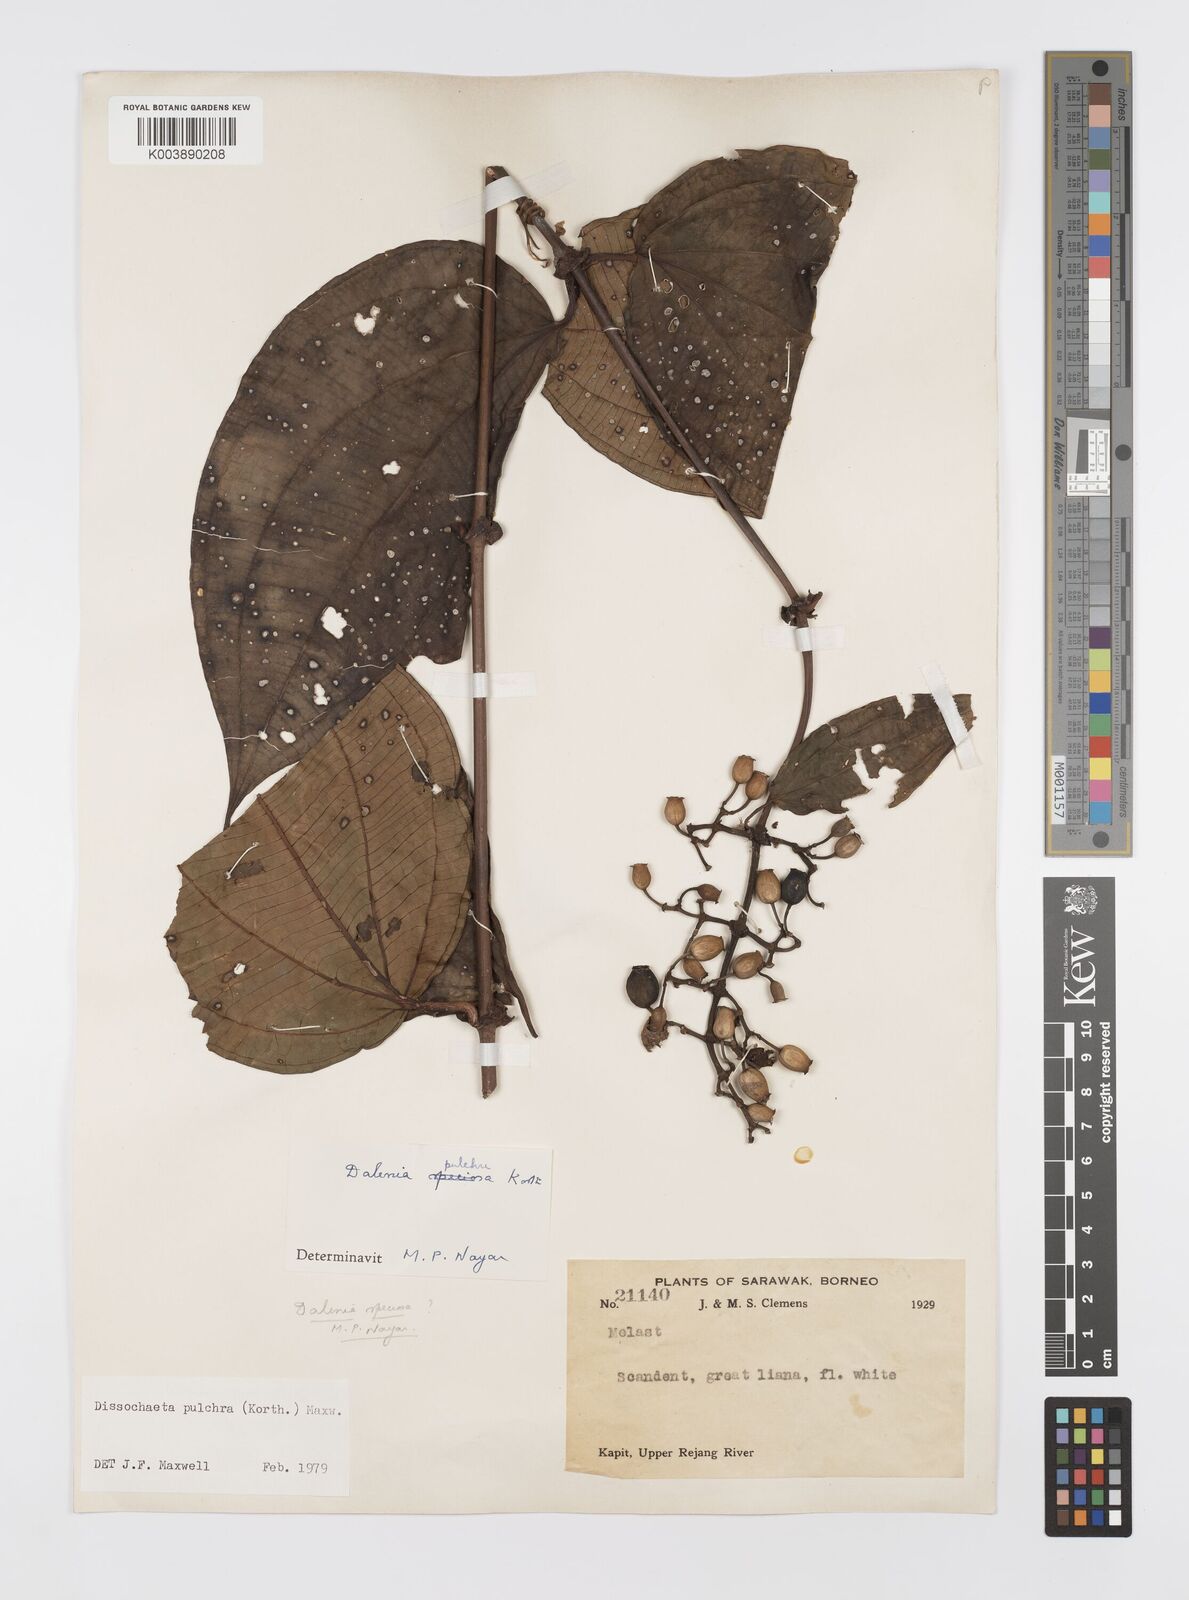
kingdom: Plantae
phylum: Tracheophyta
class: Magnoliopsida
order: Myrtales
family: Melastomataceae
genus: Dalenia
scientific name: Dalenia pulchra
